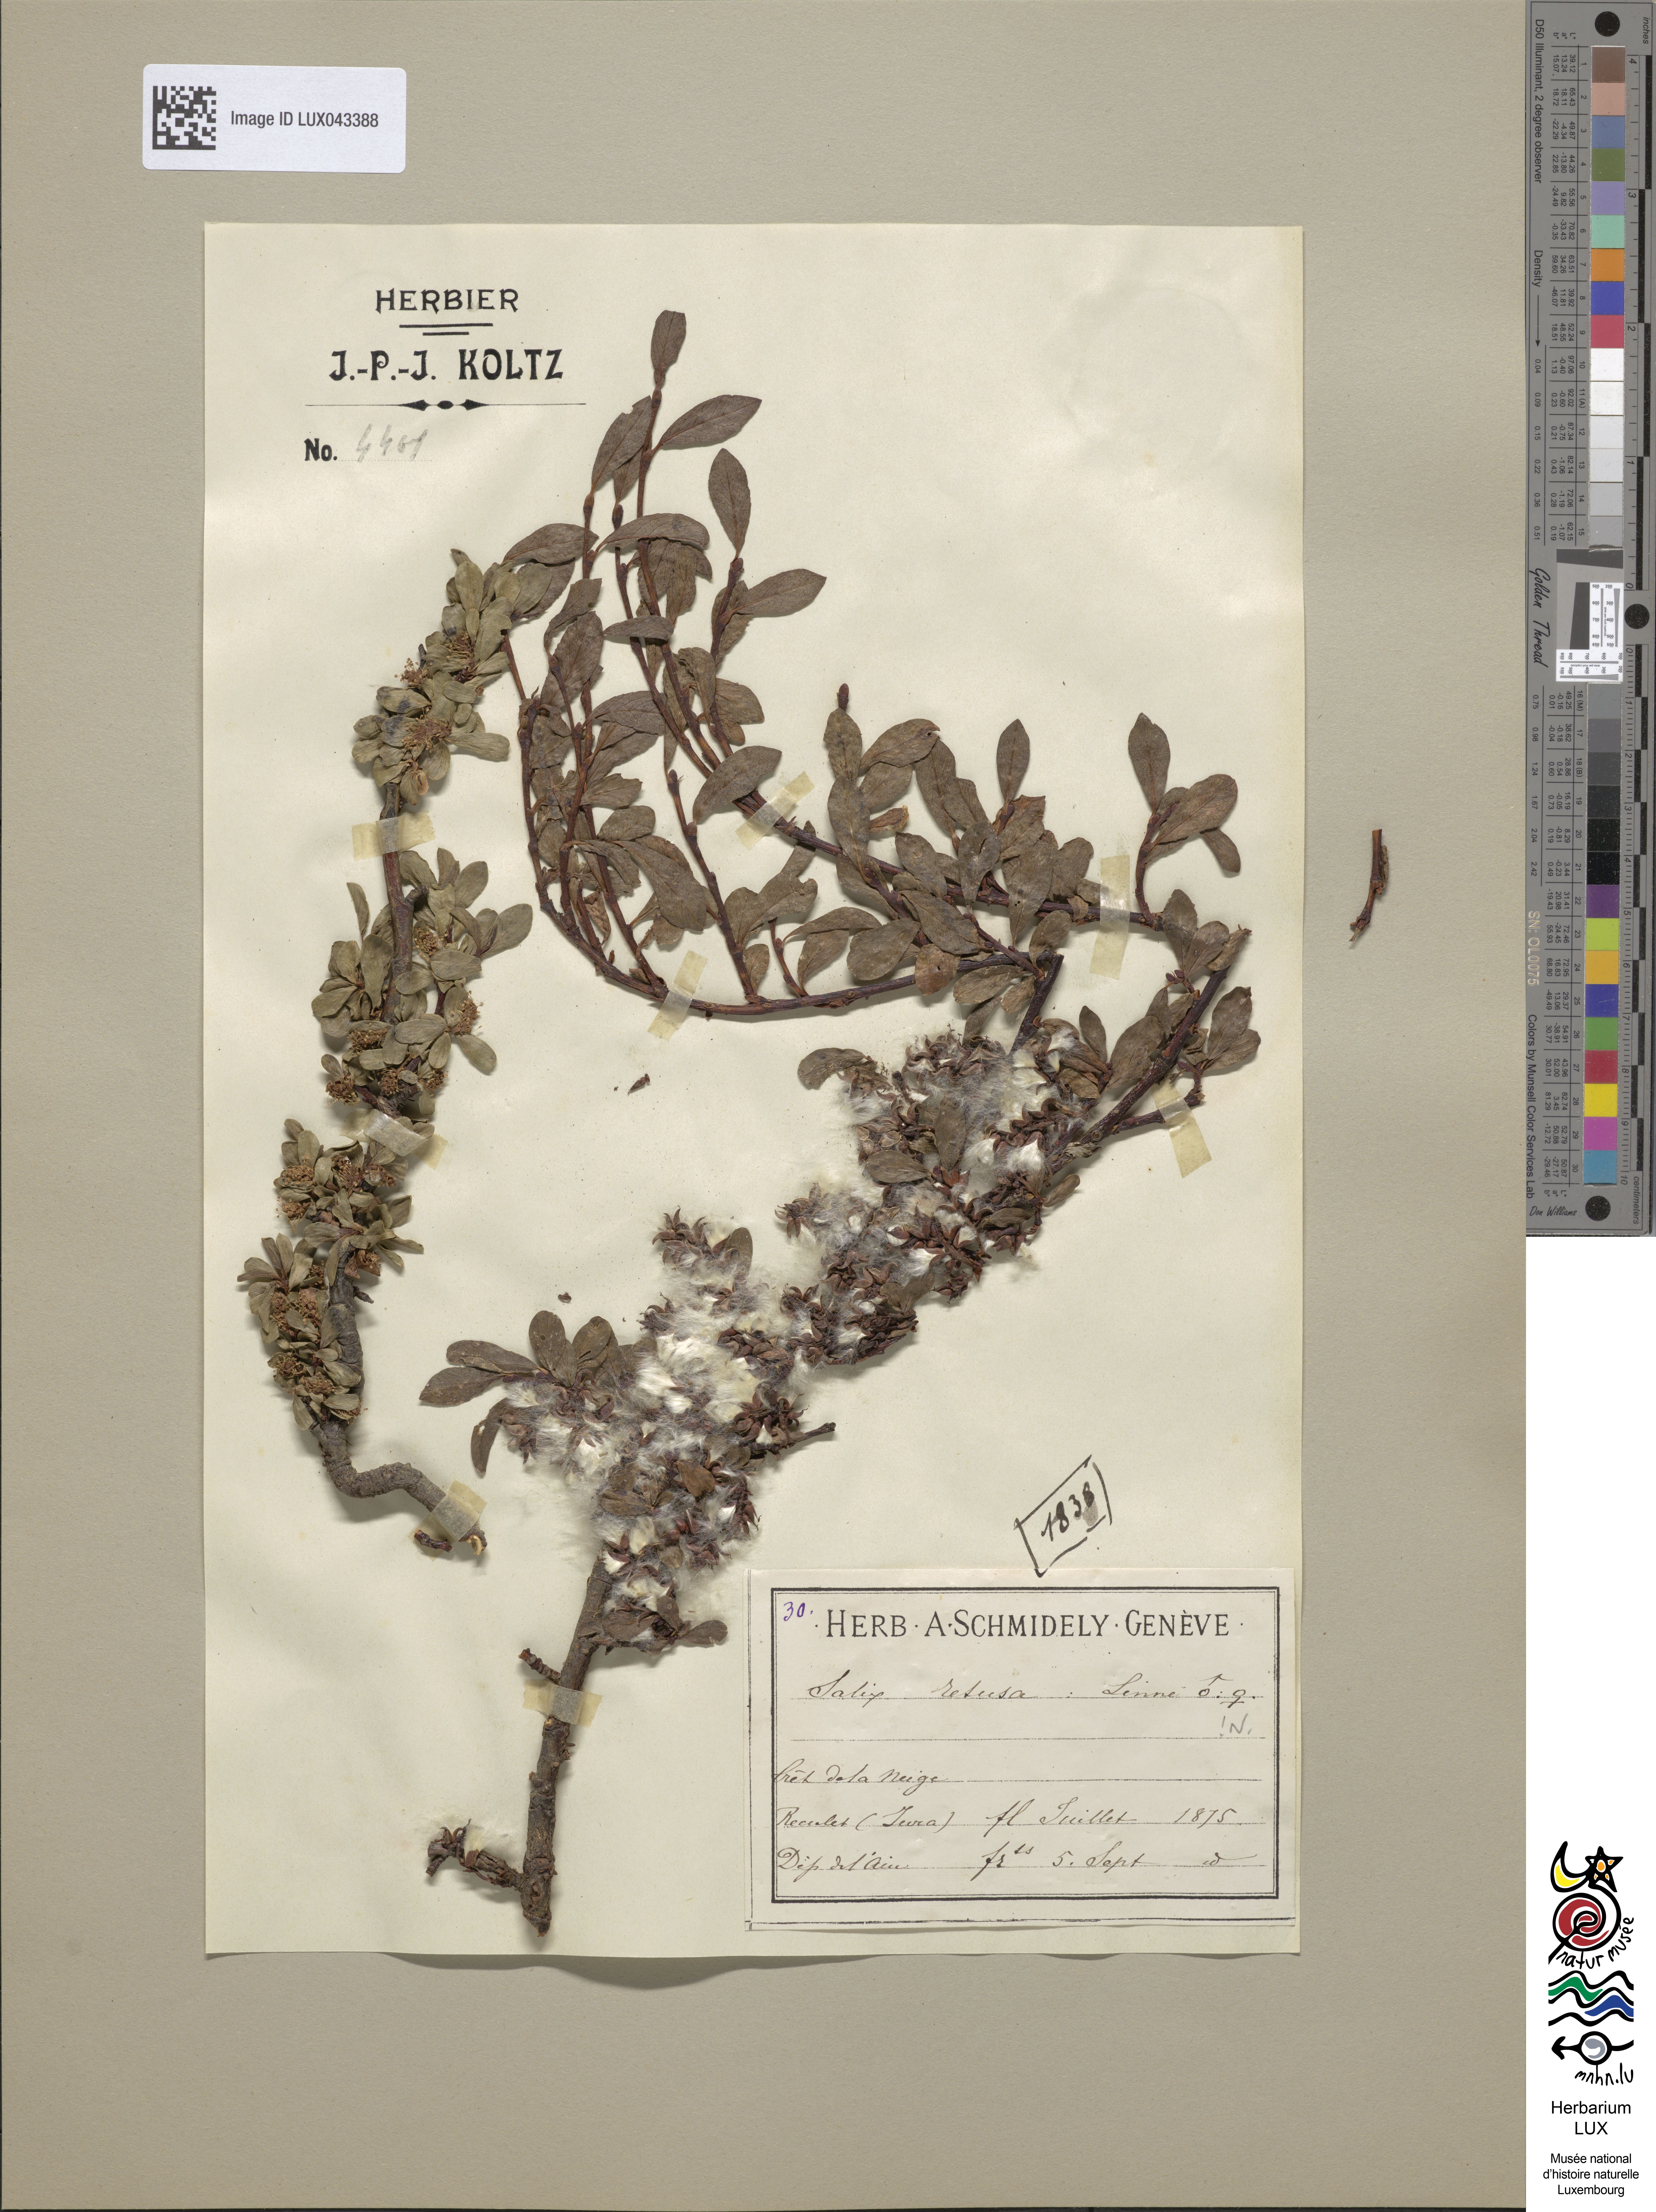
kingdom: Plantae
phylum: Tracheophyta
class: Magnoliopsida
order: Malpighiales
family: Salicaceae
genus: Salix
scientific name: Salix retusa
